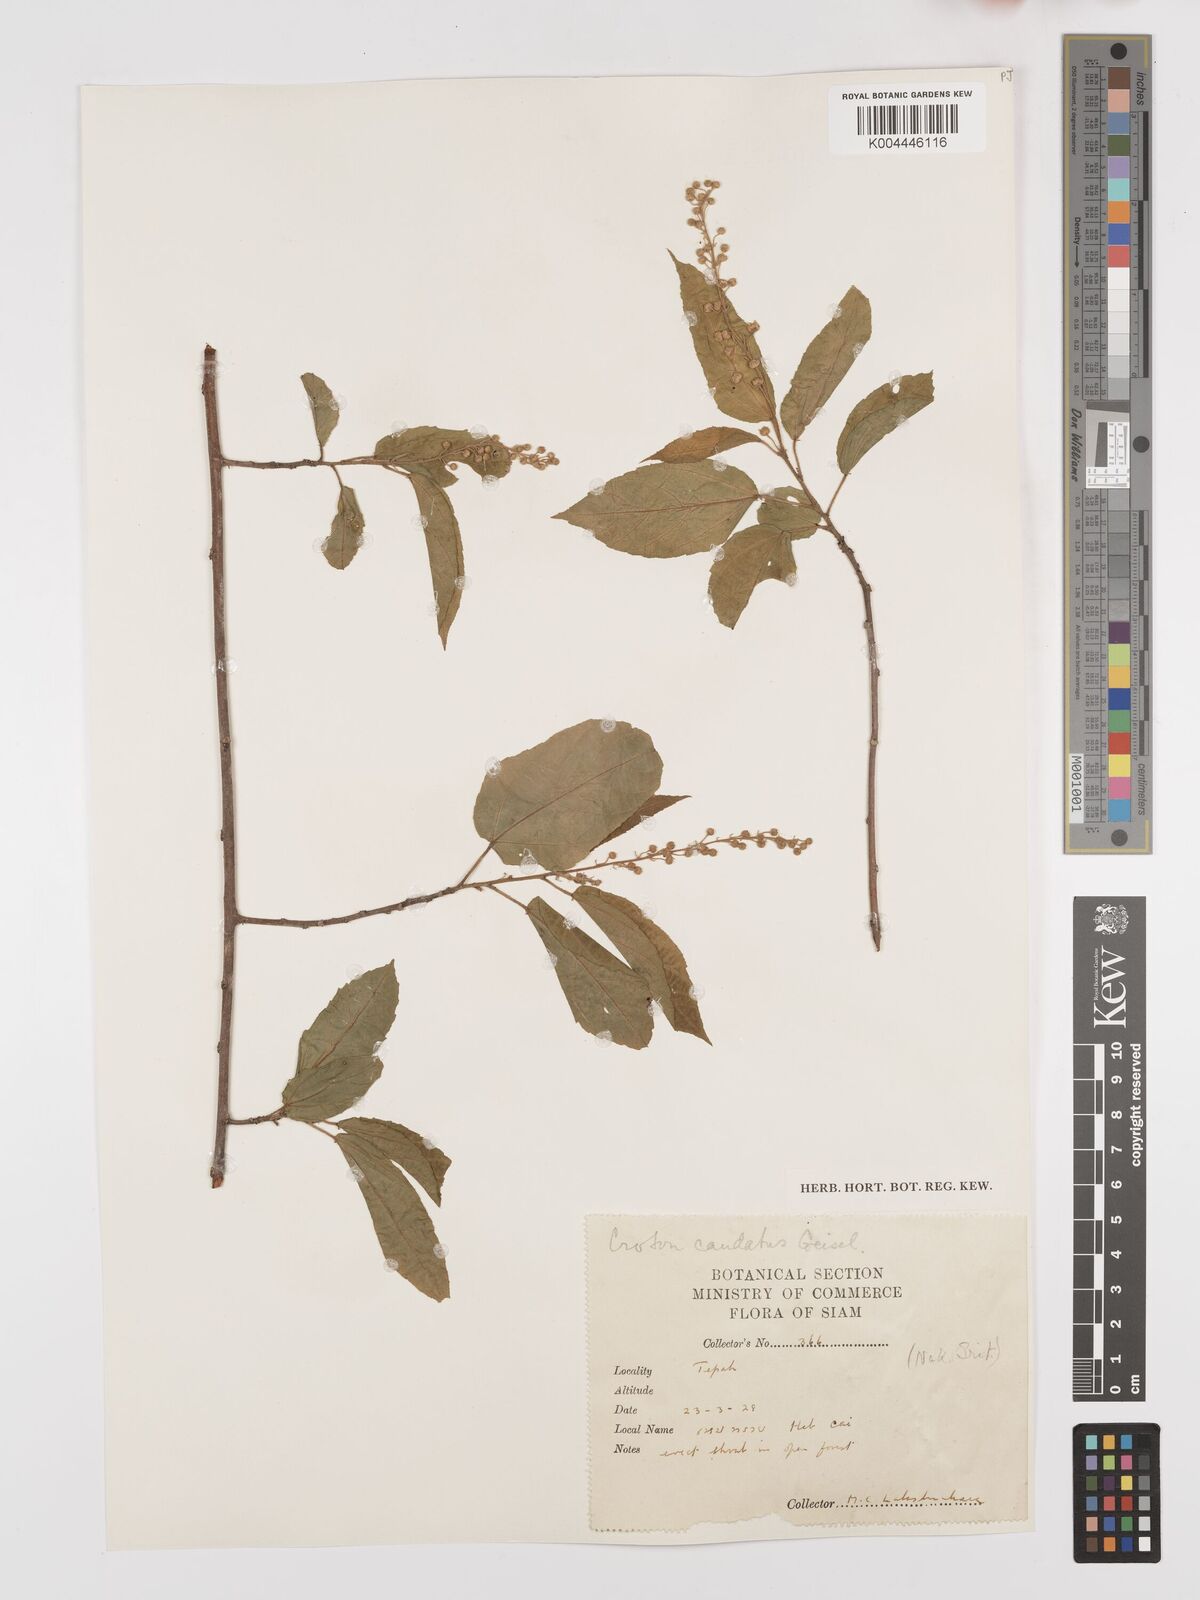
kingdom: Plantae
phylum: Tracheophyta
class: Magnoliopsida
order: Malpighiales
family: Euphorbiaceae
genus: Croton
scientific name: Croton caudatus
